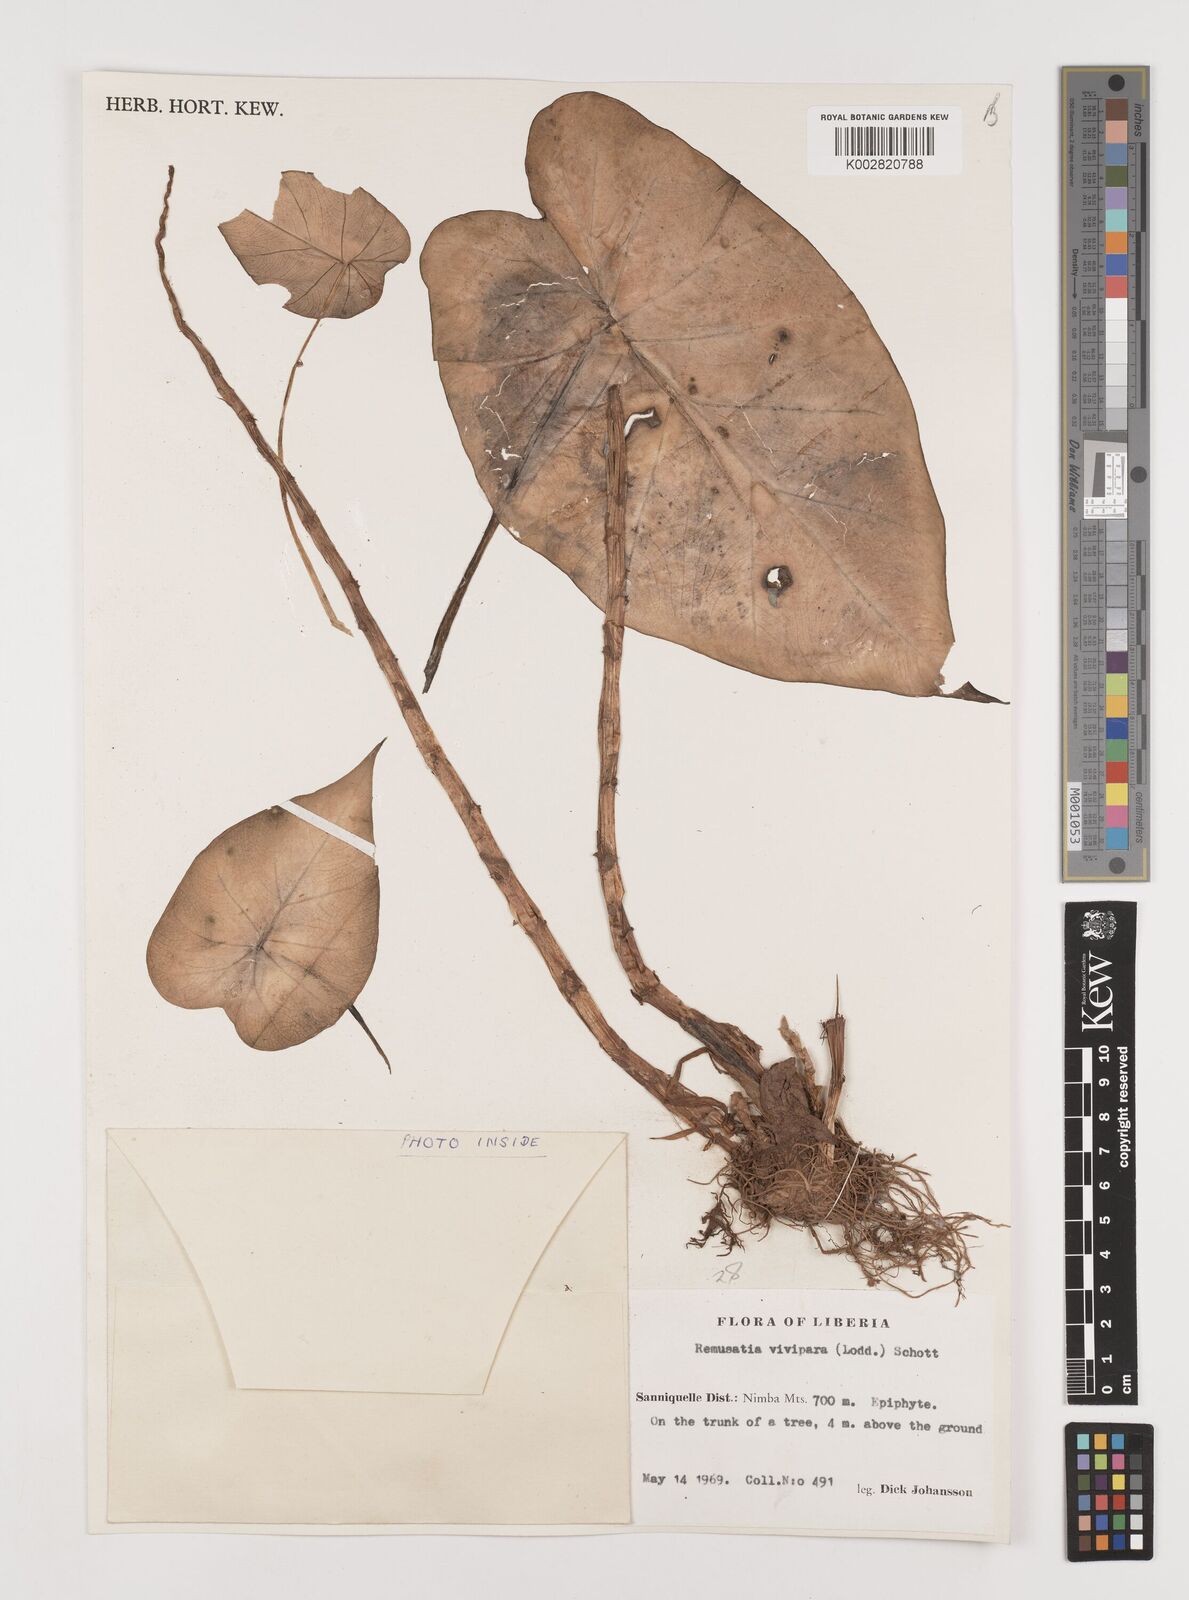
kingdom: Plantae
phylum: Tracheophyta
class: Liliopsida
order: Alismatales
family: Araceae
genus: Remusatia
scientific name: Remusatia vivipara
